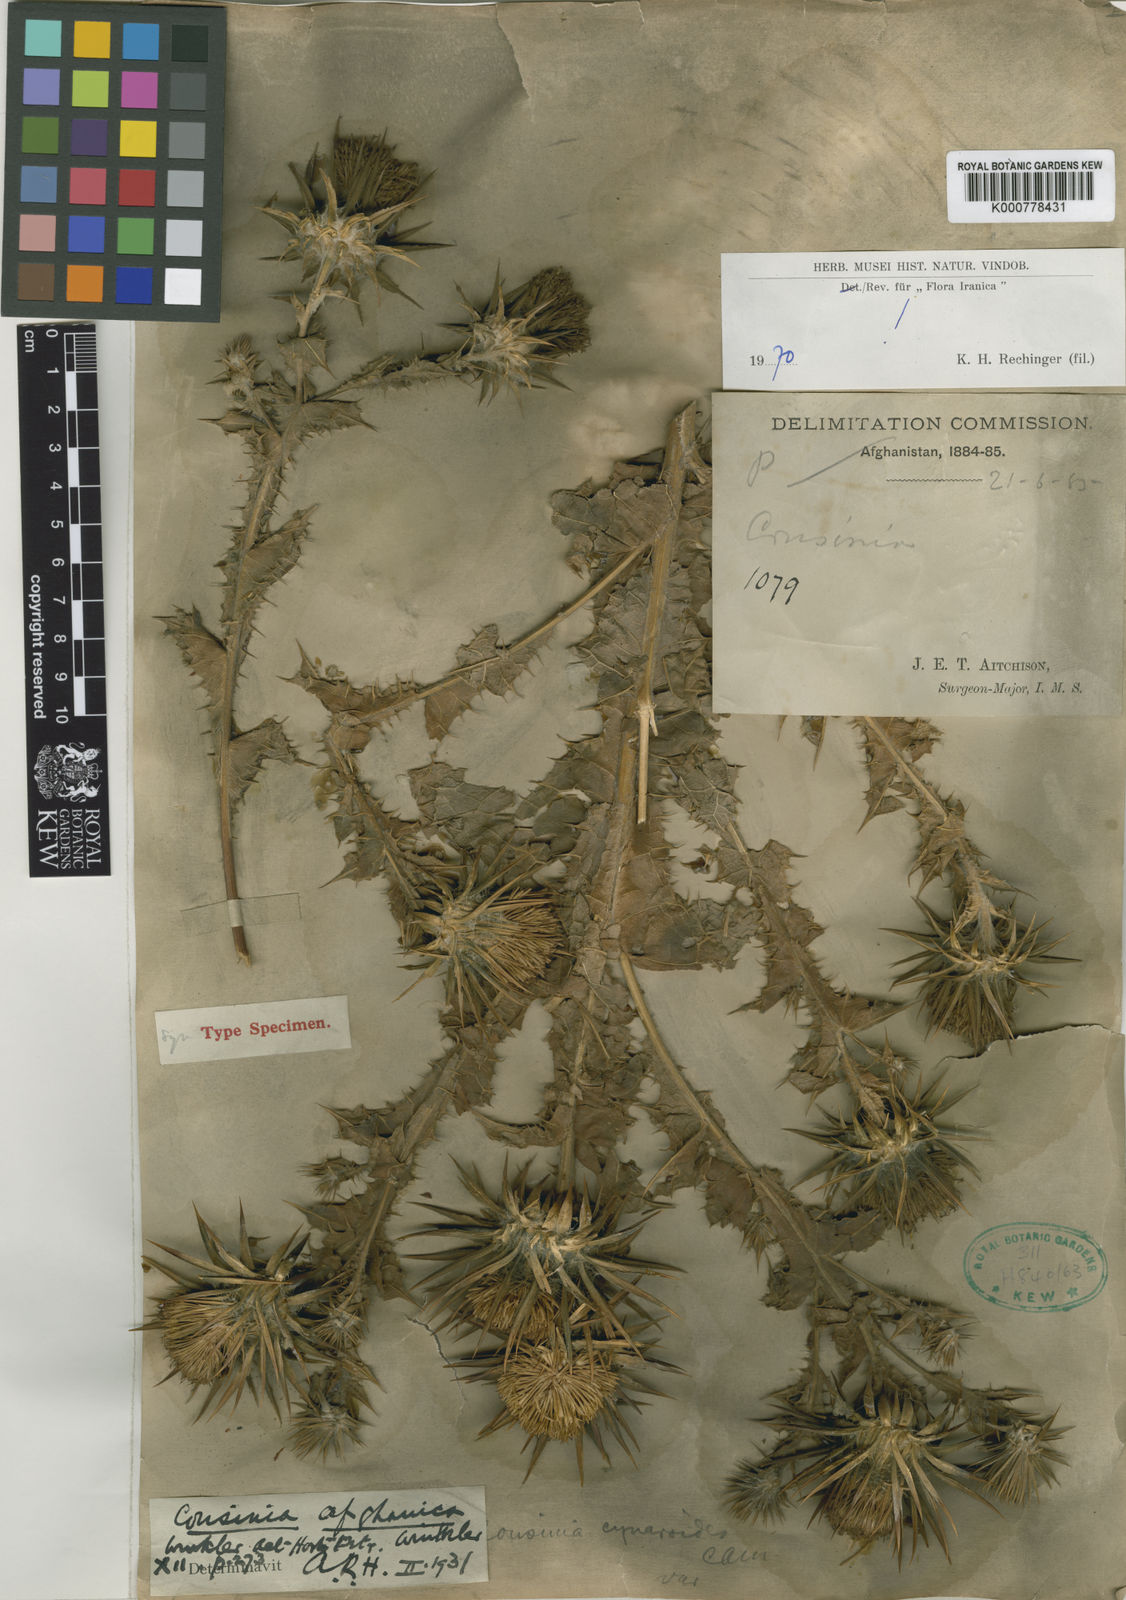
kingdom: Plantae
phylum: Tracheophyta
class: Magnoliopsida
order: Asterales
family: Asteraceae
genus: Cousinia
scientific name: Cousinia afghanica
